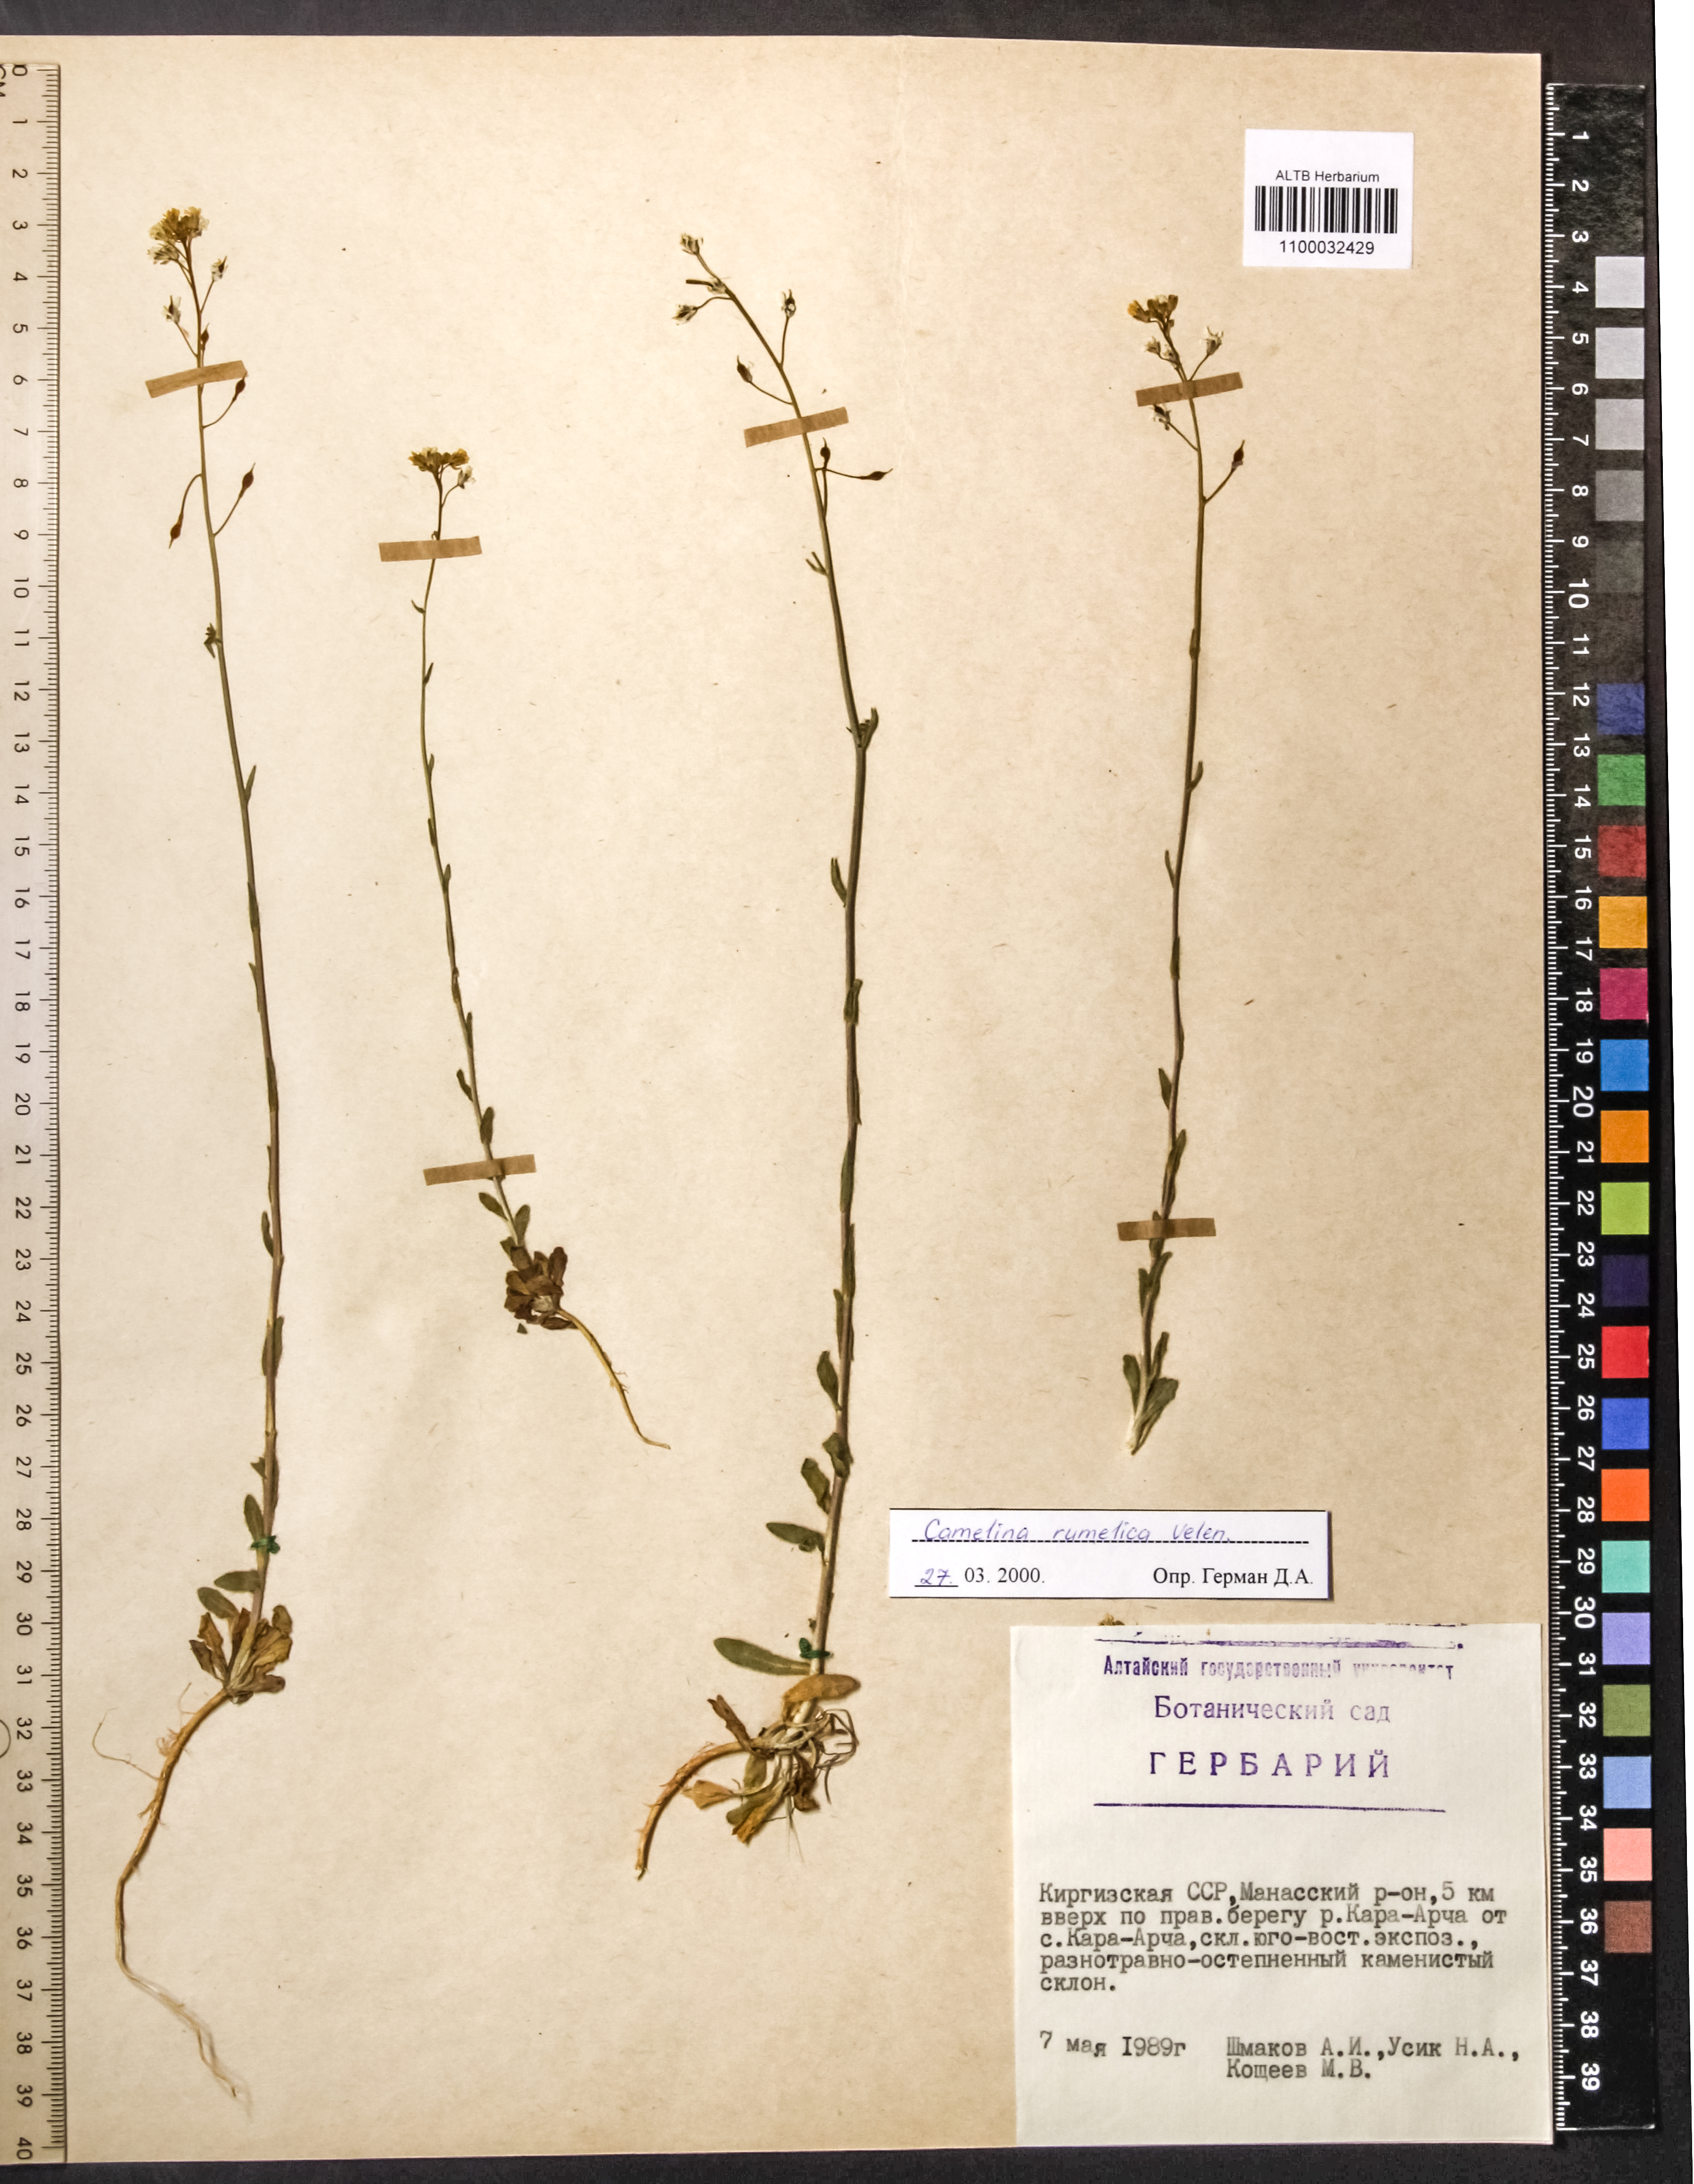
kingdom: Plantae
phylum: Tracheophyta
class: Magnoliopsida
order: Brassicales
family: Brassicaceae
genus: Camelina
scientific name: Camelina rumelica
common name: Graceful false flax
